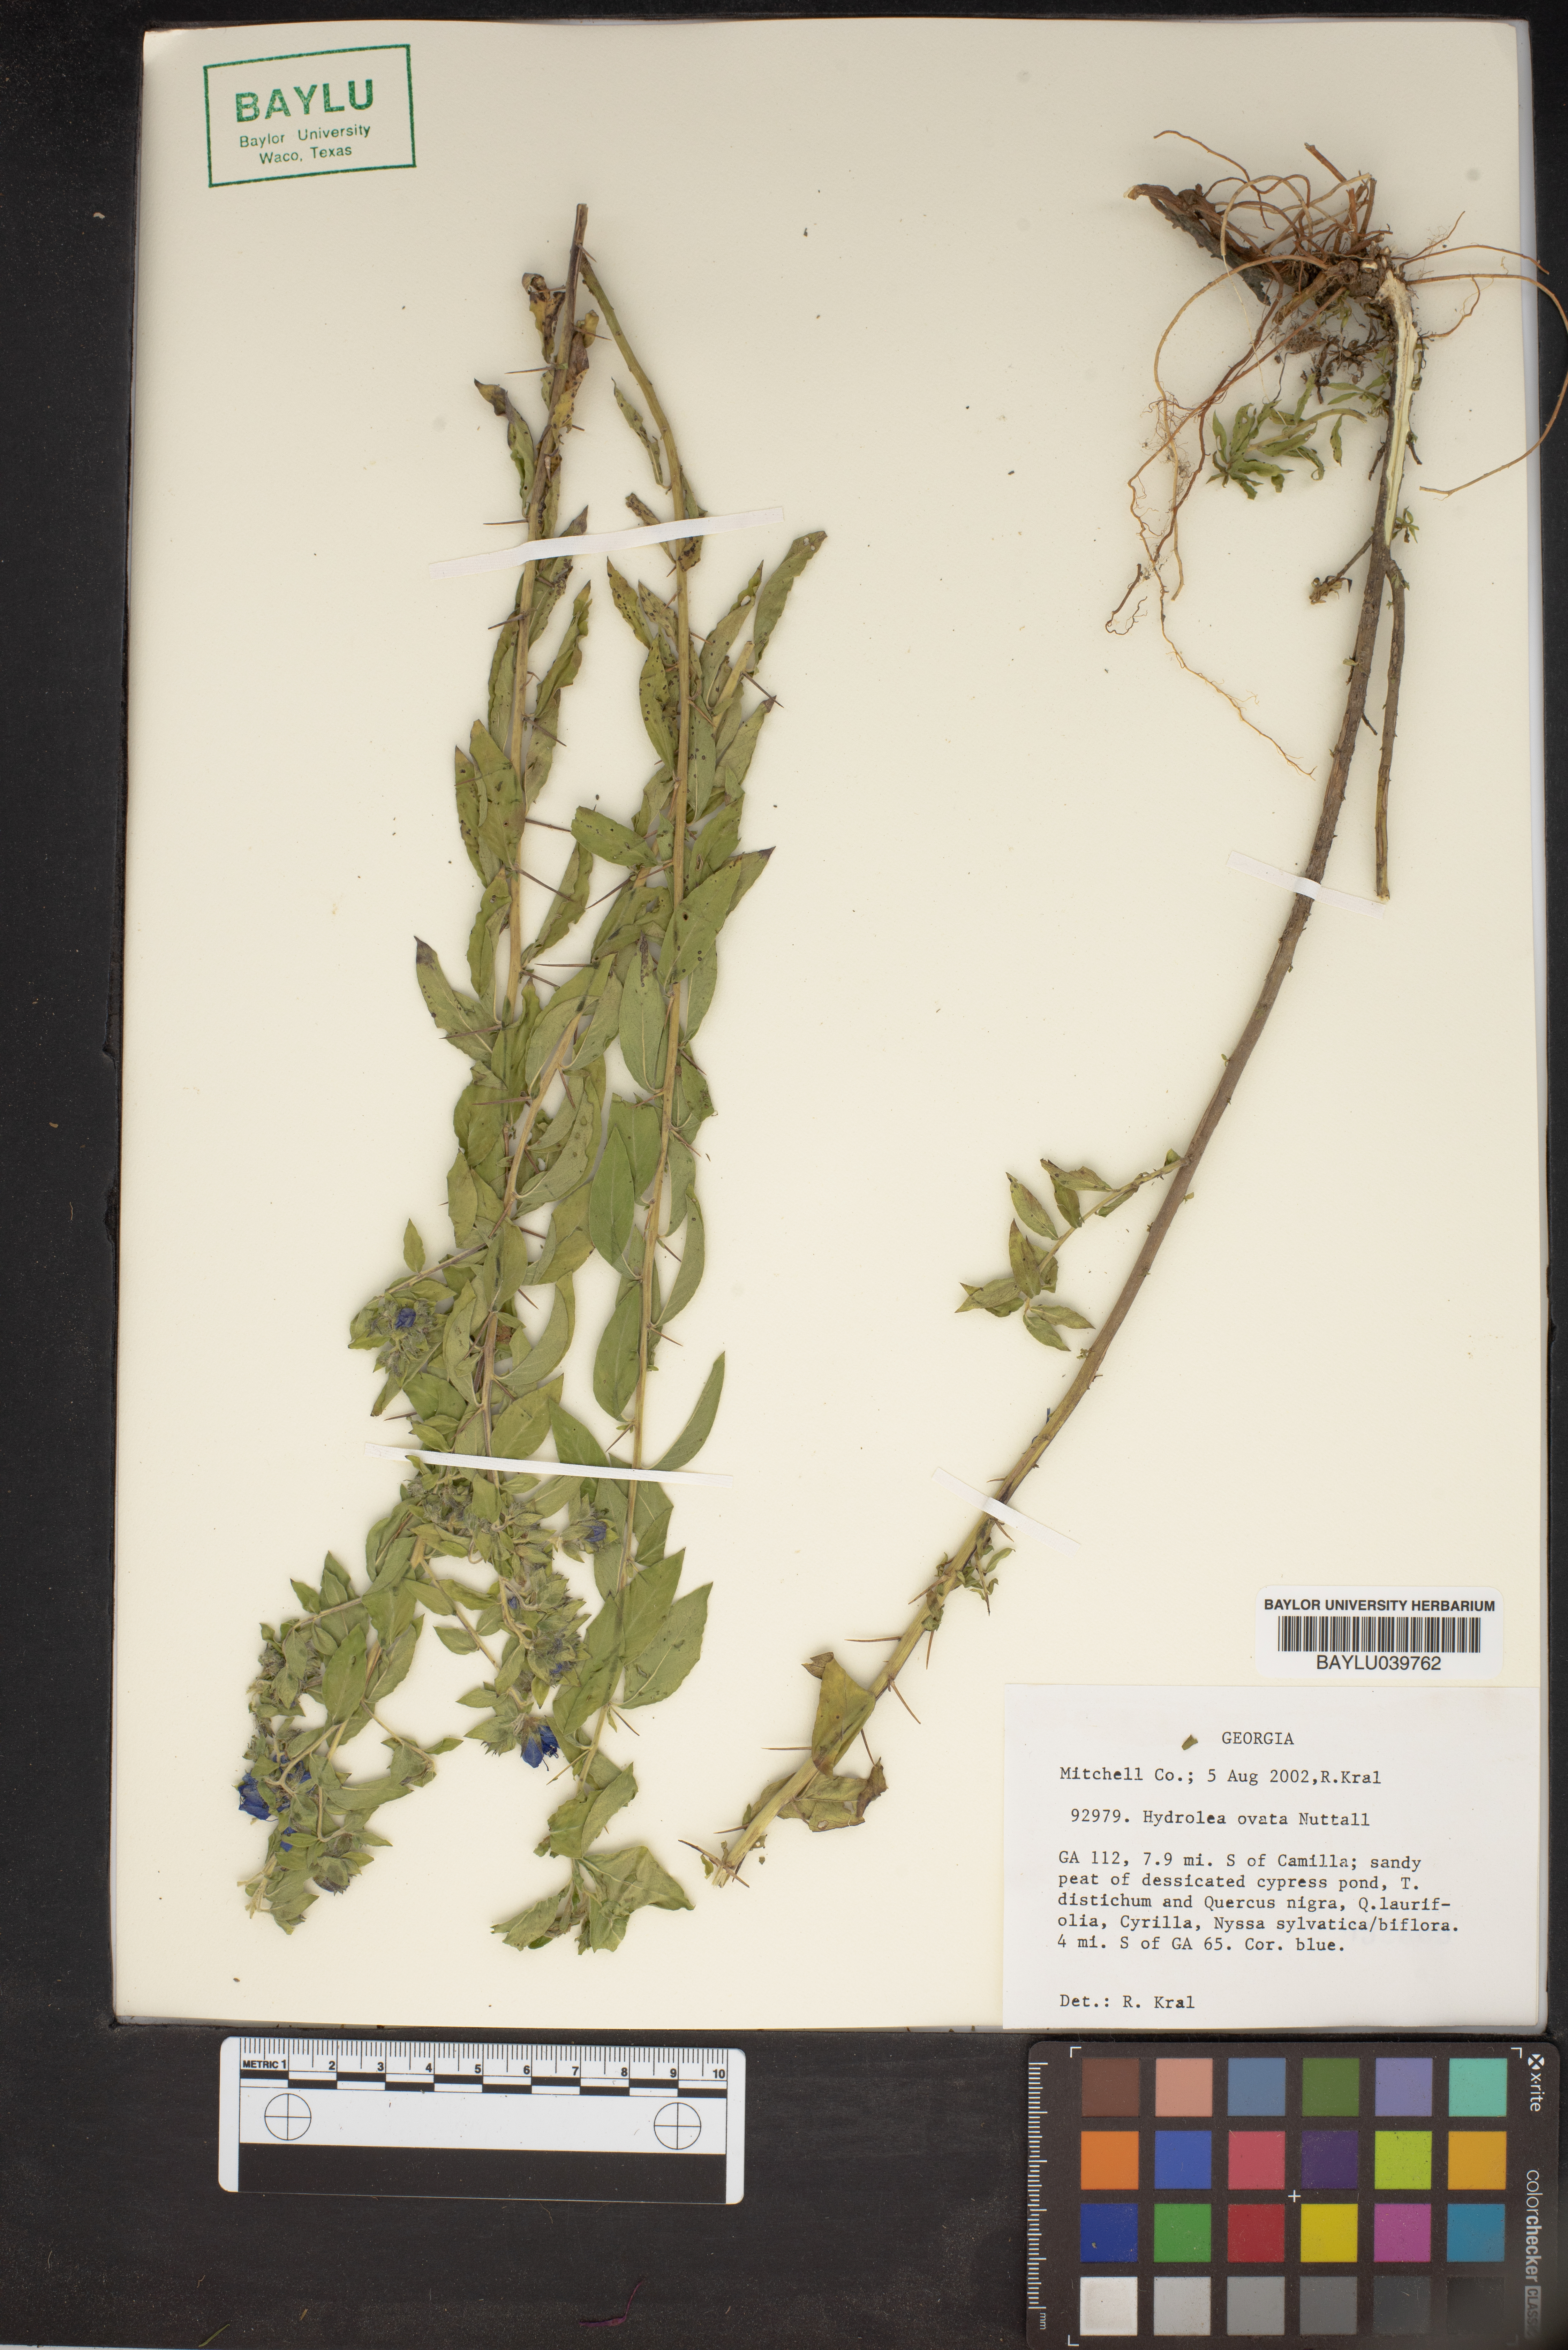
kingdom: Plantae
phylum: Tracheophyta
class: Magnoliopsida
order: Solanales
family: Hydroleaceae
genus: Hydrolea
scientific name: Hydrolea ovata
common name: Ovate false fiddleleaf
